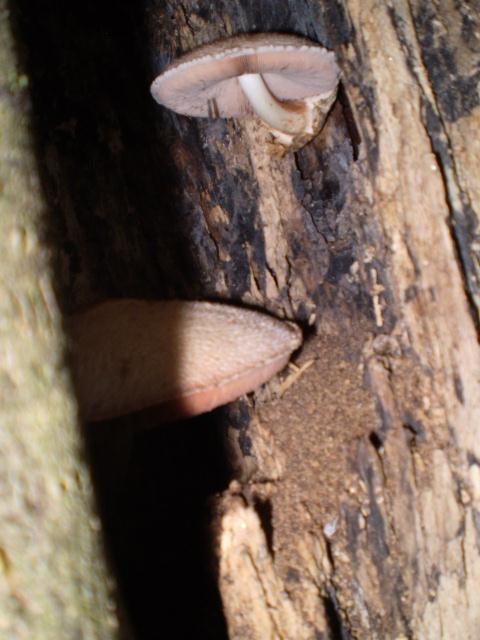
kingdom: Fungi
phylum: Basidiomycota
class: Agaricomycetes
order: Agaricales
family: Pluteaceae
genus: Volvariella
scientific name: Volvariella bombycina
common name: silkehåret posesvamp
